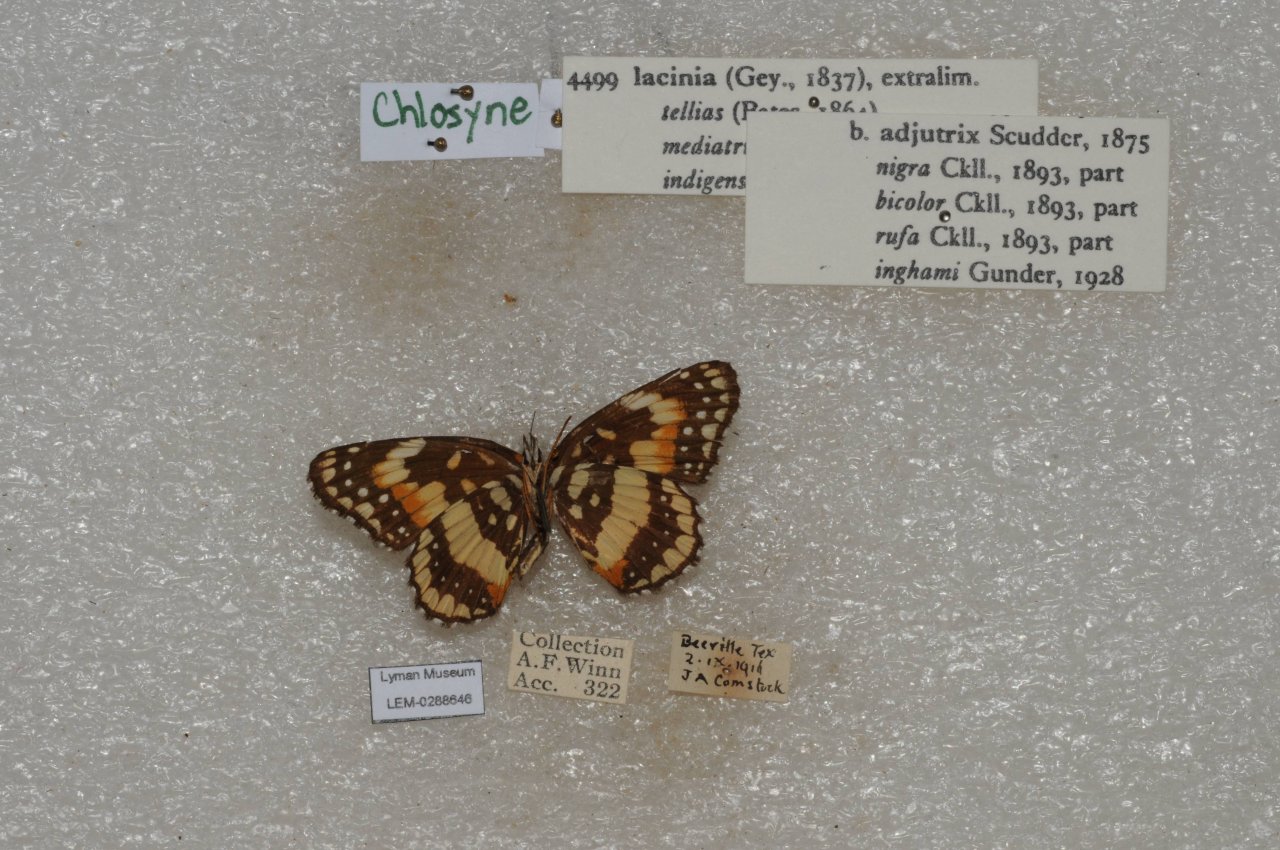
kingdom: Animalia
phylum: Arthropoda
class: Insecta
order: Lepidoptera
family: Nymphalidae
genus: Chlosyne
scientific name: Chlosyne lacinia
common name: Bordered Patch
